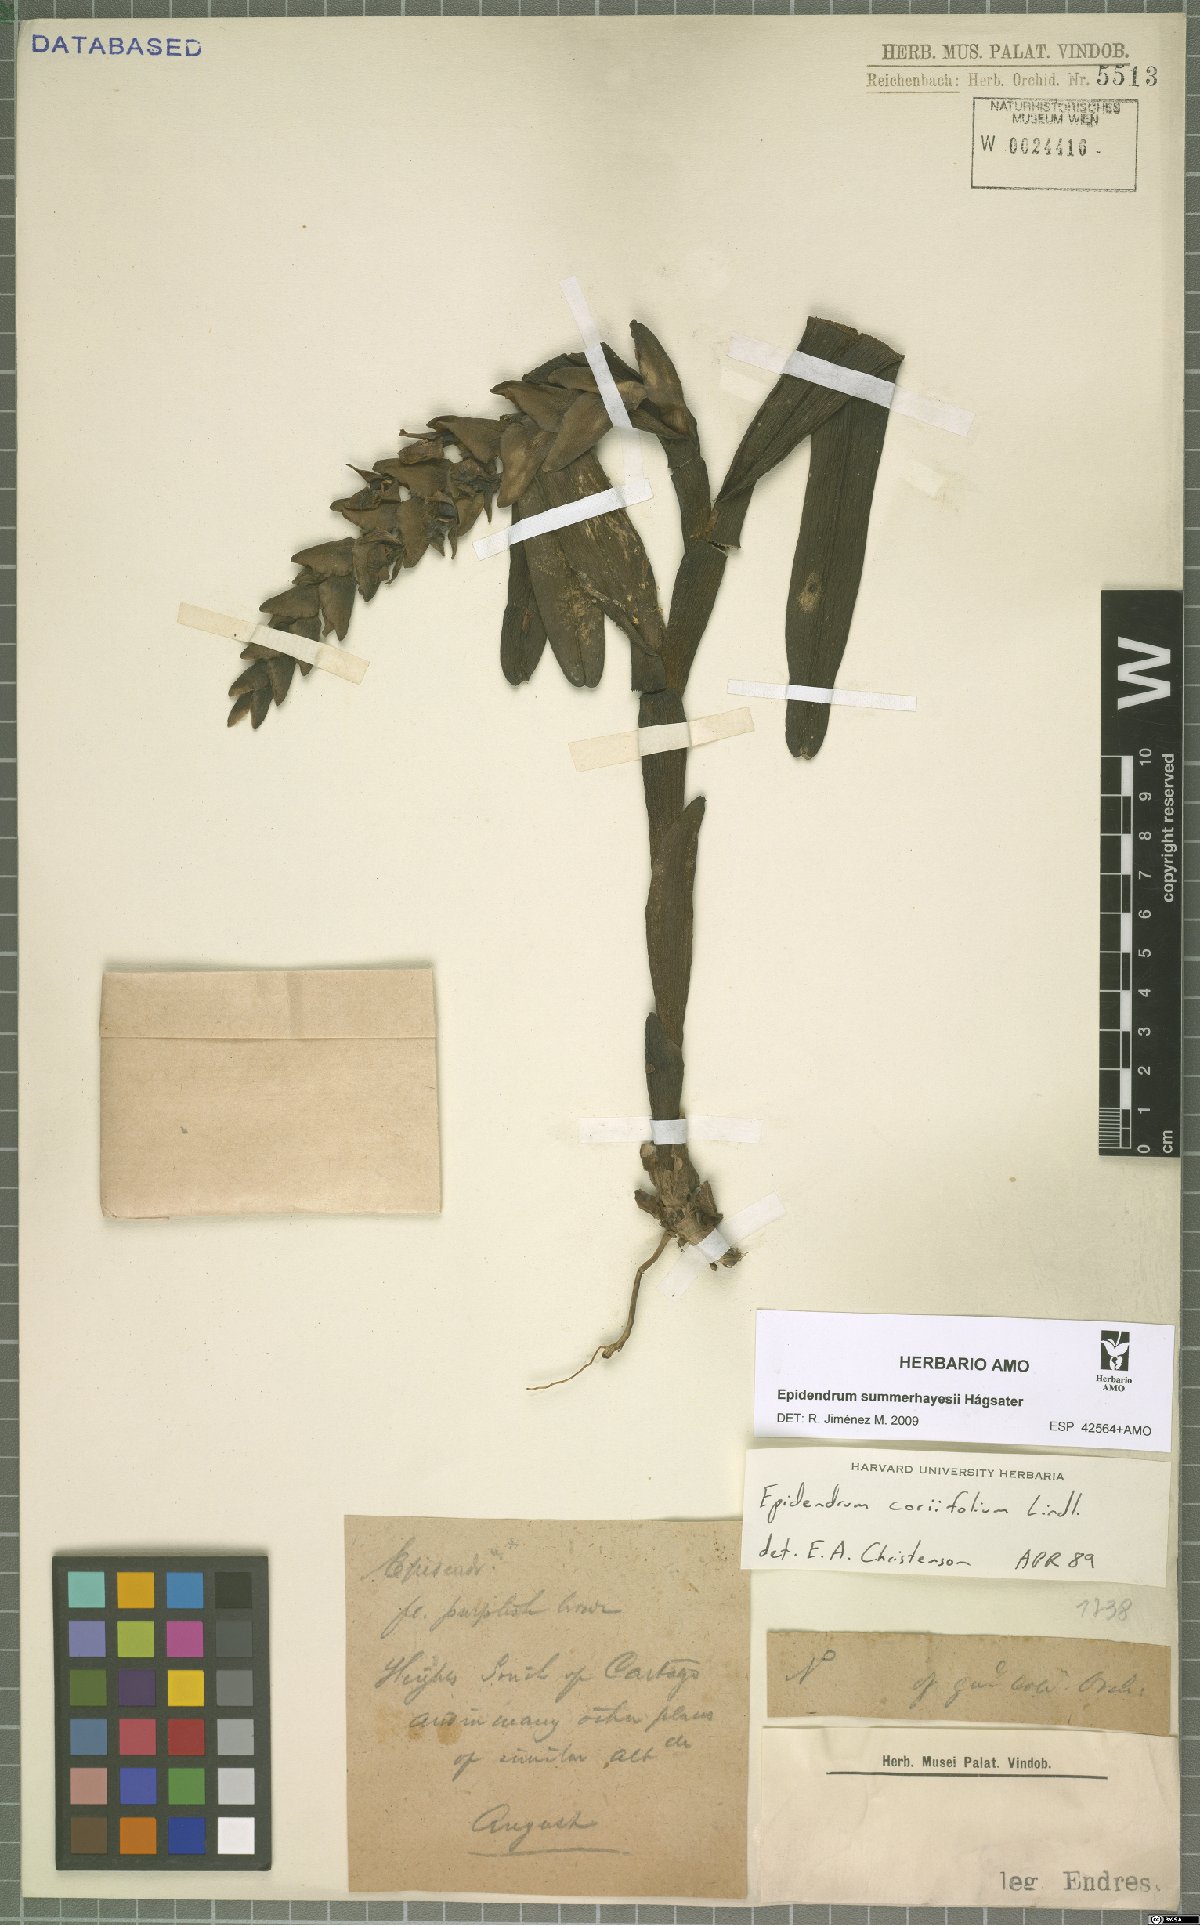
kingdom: Plantae
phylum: Tracheophyta
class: Liliopsida
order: Asparagales
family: Orchidaceae
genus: Epidendrum
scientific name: Epidendrum summerhayesii
